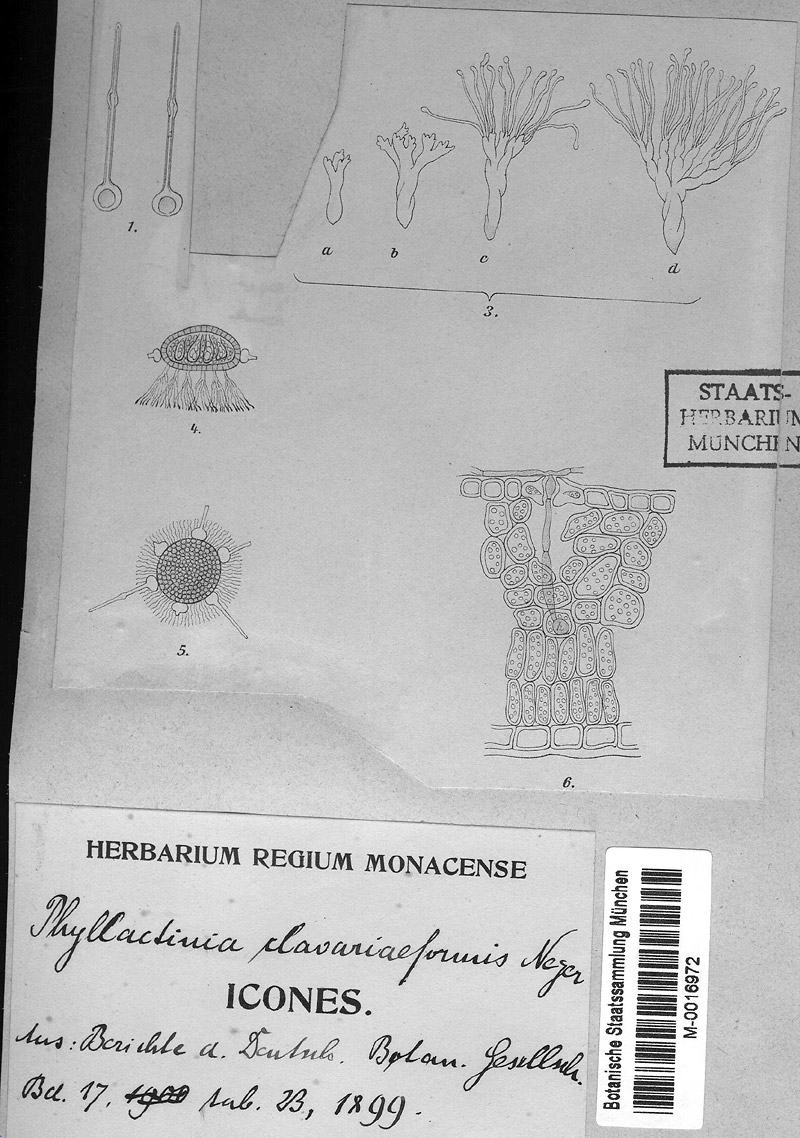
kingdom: Fungi
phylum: Ascomycota
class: Leotiomycetes
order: Helotiales
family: Erysiphaceae
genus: Phyllactinia
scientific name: Phyllactinia antarctica
